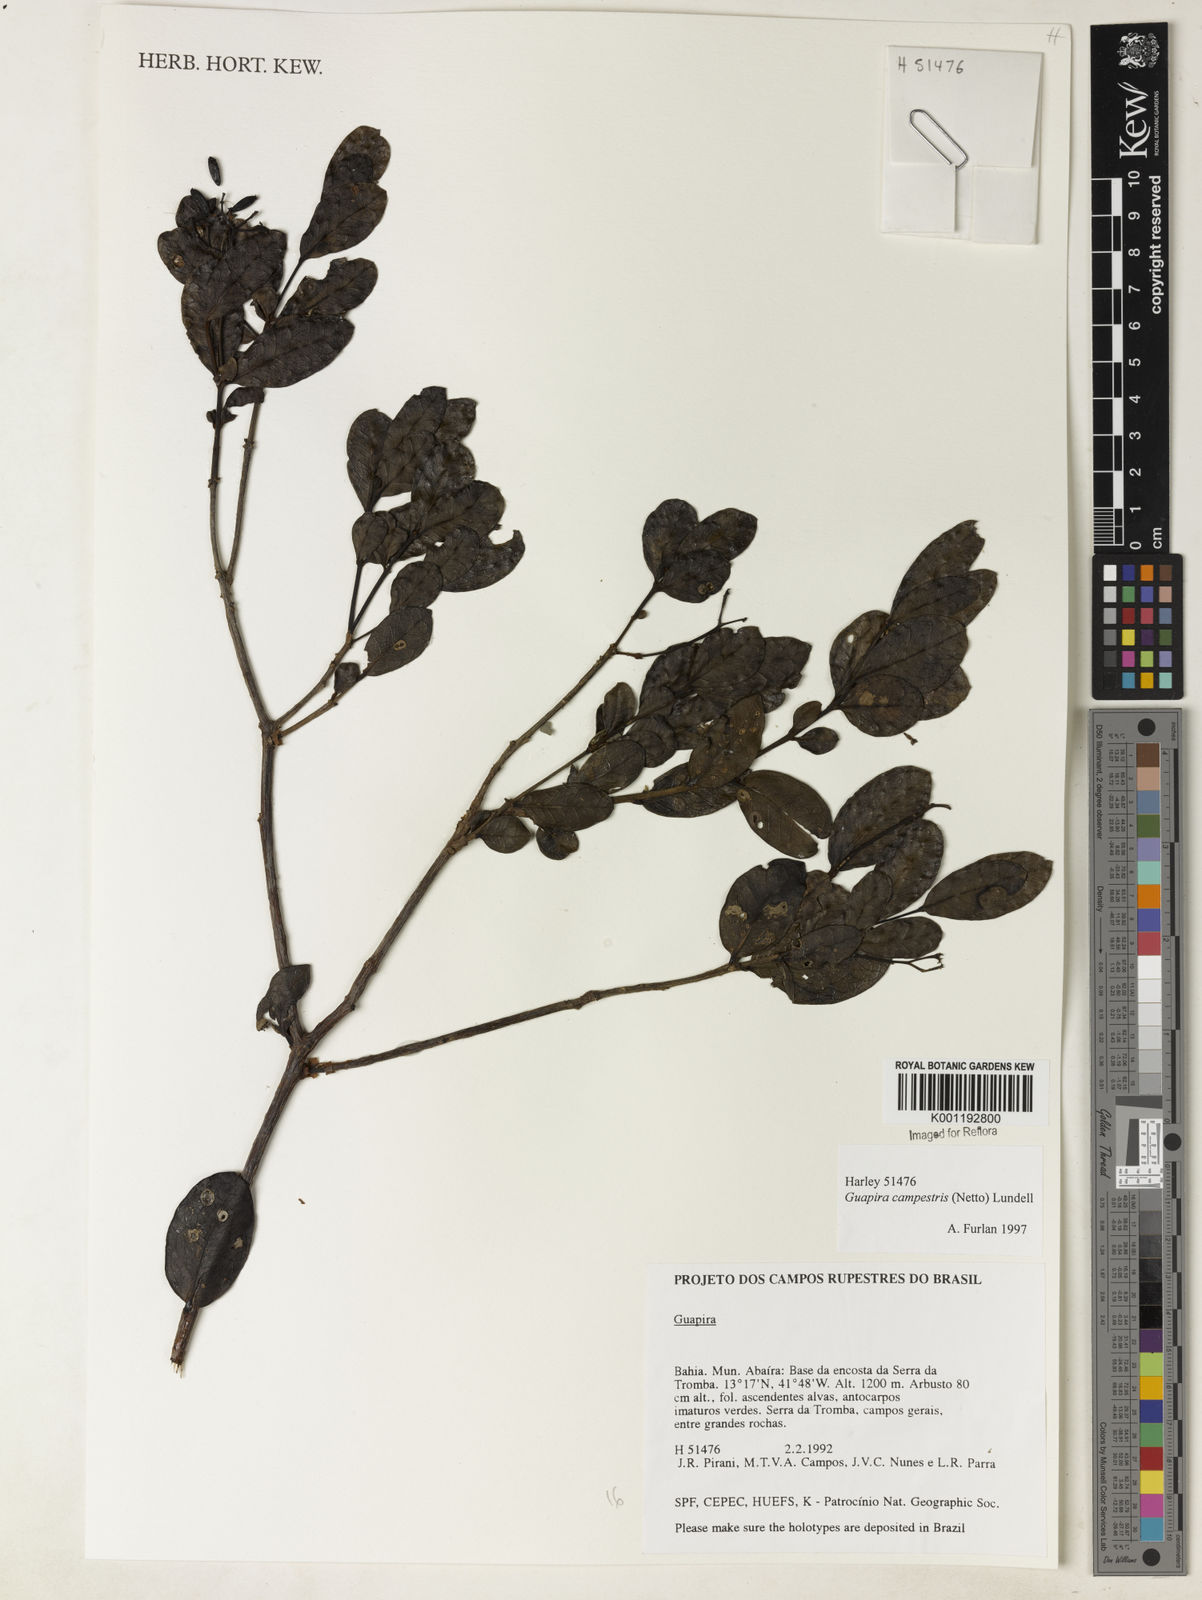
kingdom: Plantae
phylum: Tracheophyta
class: Magnoliopsida
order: Caryophyllales
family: Nyctaginaceae
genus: Guapira
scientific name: Guapira campestris
